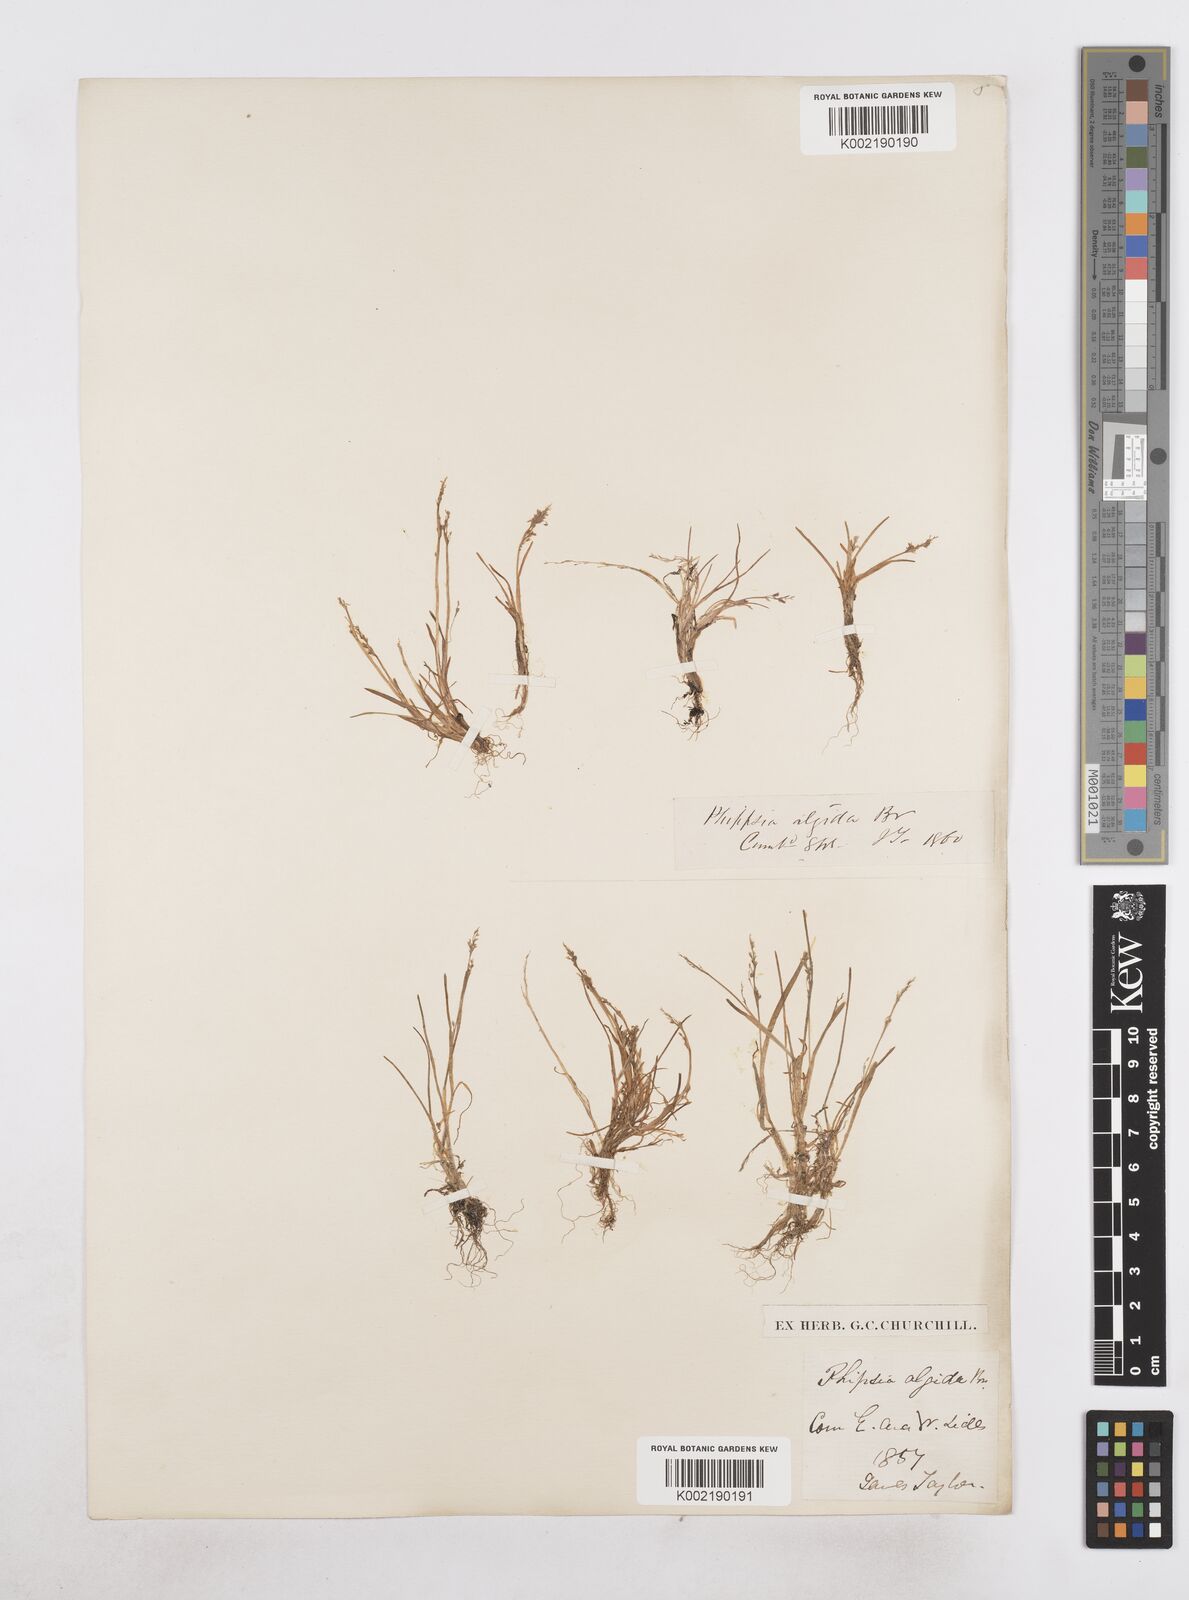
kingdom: Plantae
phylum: Tracheophyta
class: Liliopsida
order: Poales
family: Poaceae
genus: Phippsia
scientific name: Phippsia algida
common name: Ice grass
